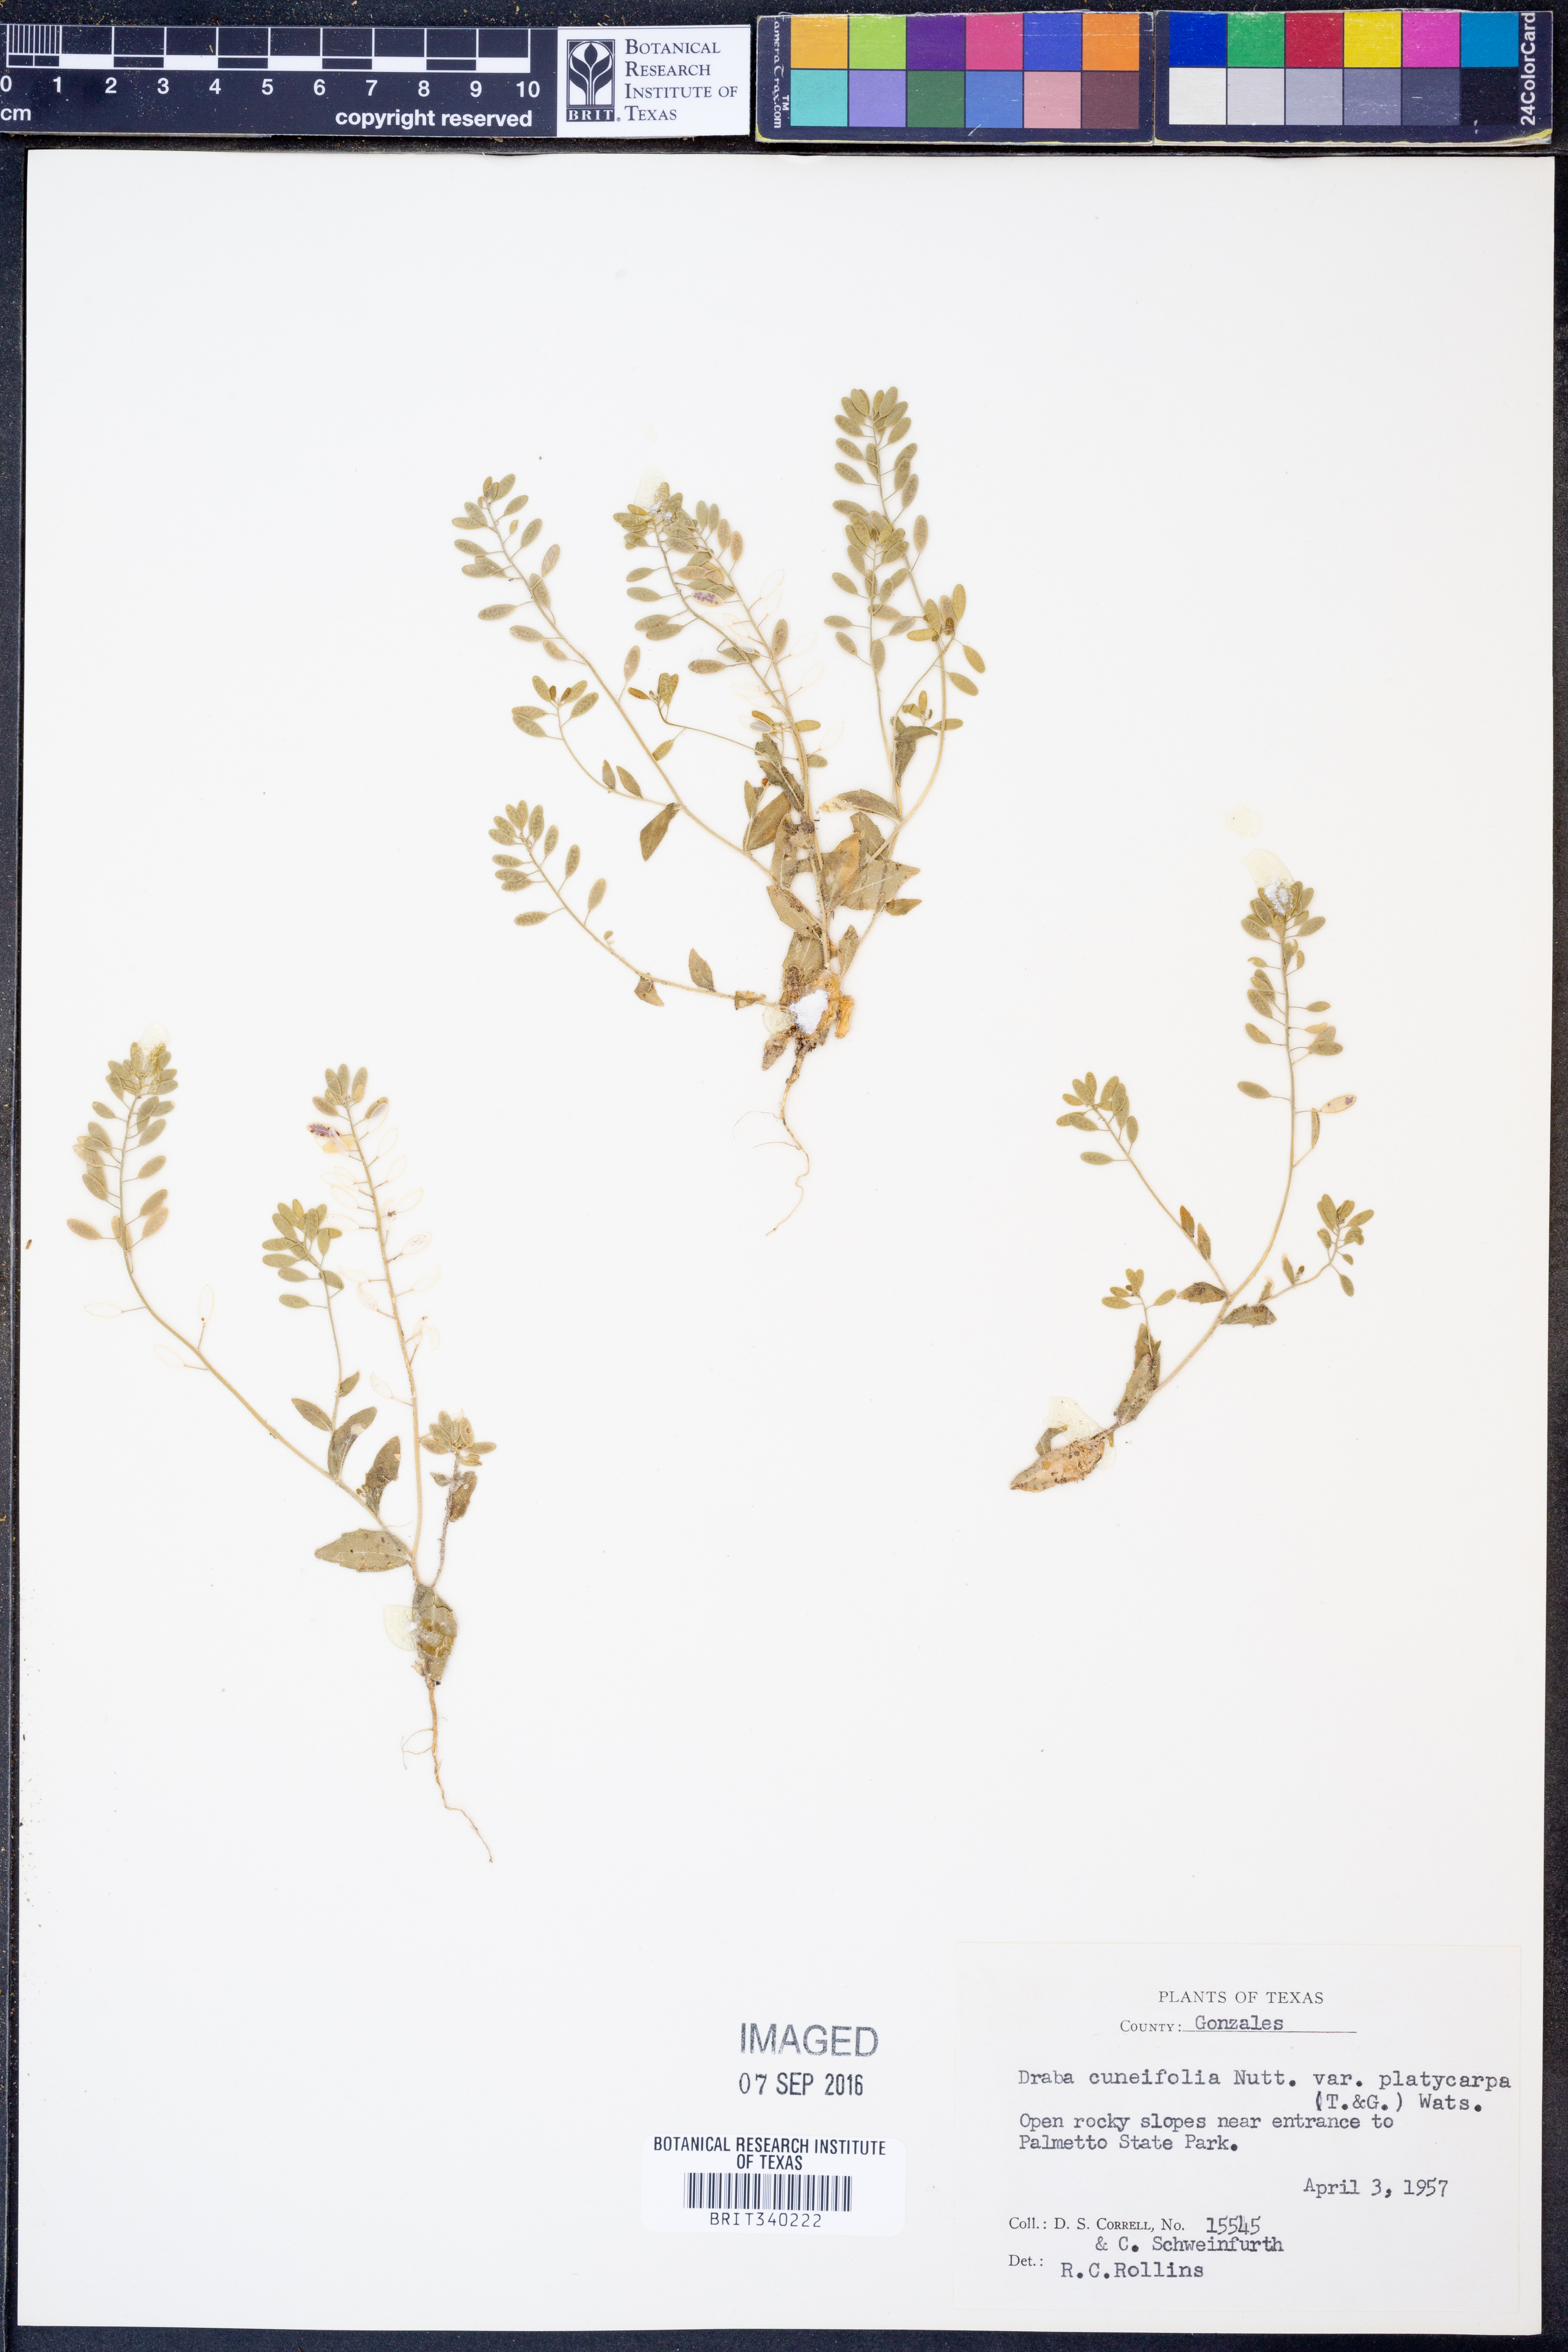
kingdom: Plantae
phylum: Tracheophyta
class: Magnoliopsida
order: Brassicales
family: Brassicaceae
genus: Tomostima
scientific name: Tomostima platycarpa
